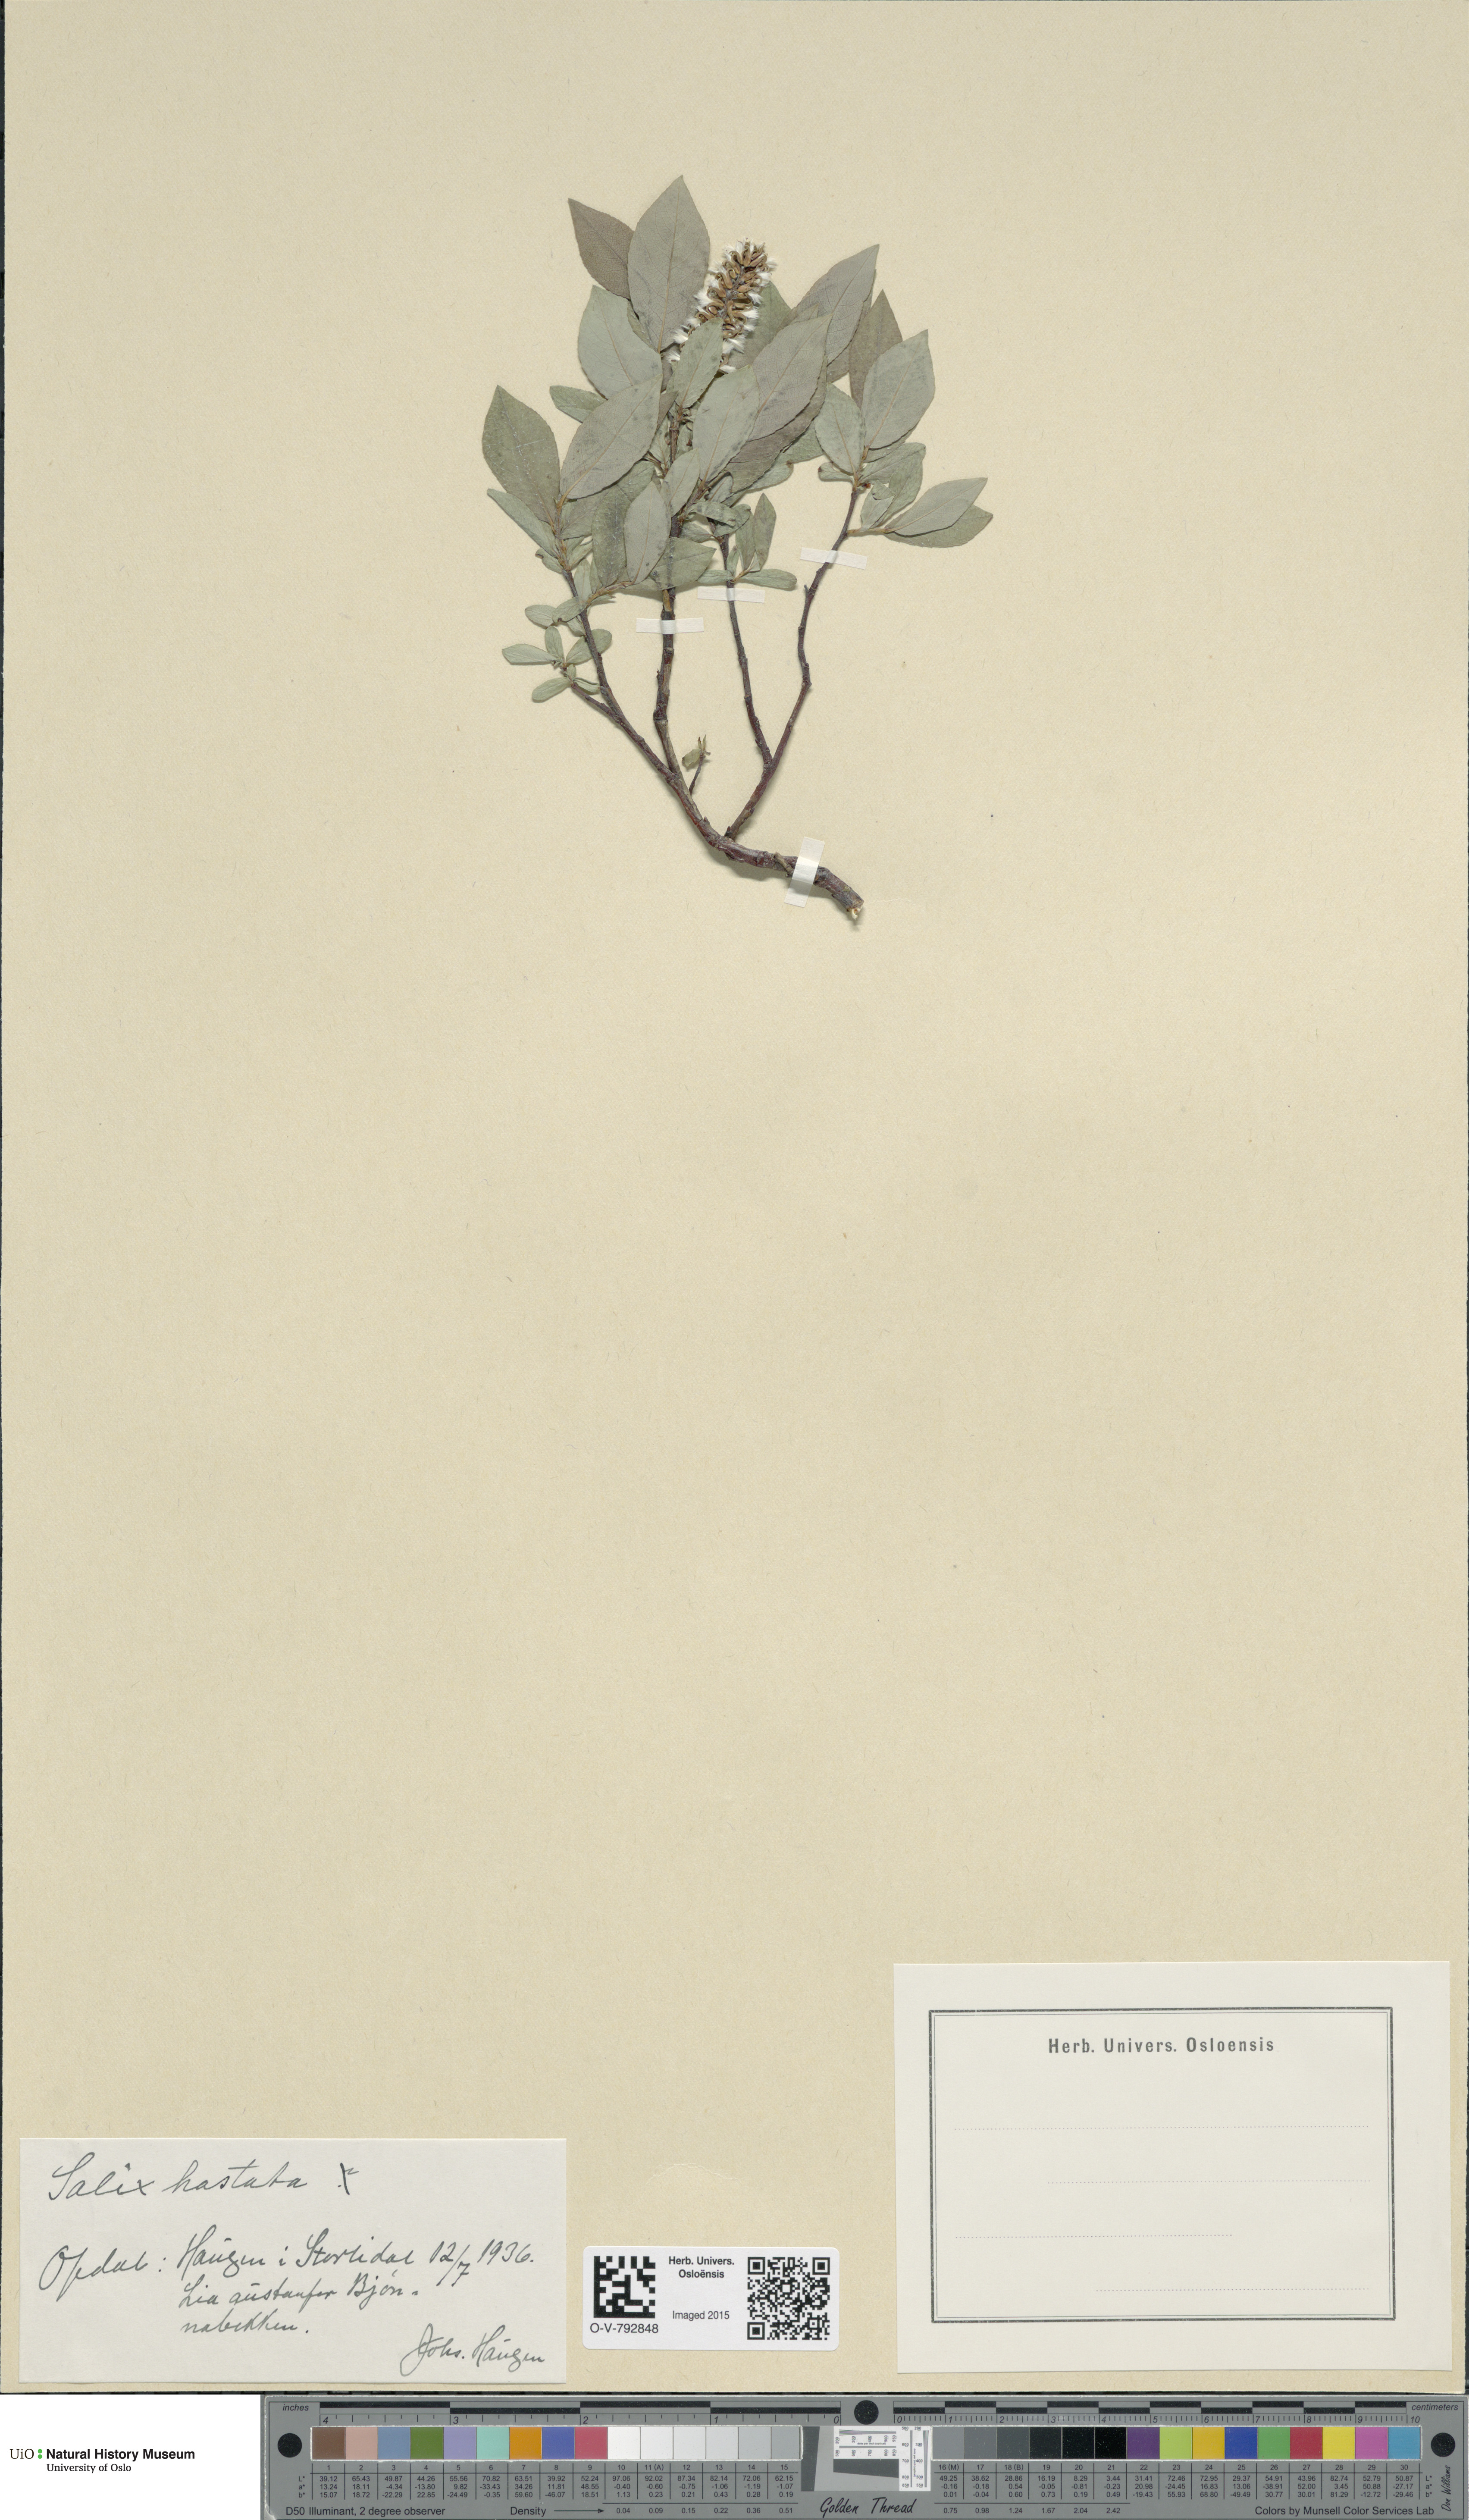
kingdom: Plantae
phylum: Tracheophyta
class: Magnoliopsida
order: Malpighiales
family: Salicaceae
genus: Salix
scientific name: Salix hastata
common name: Halberd willow
